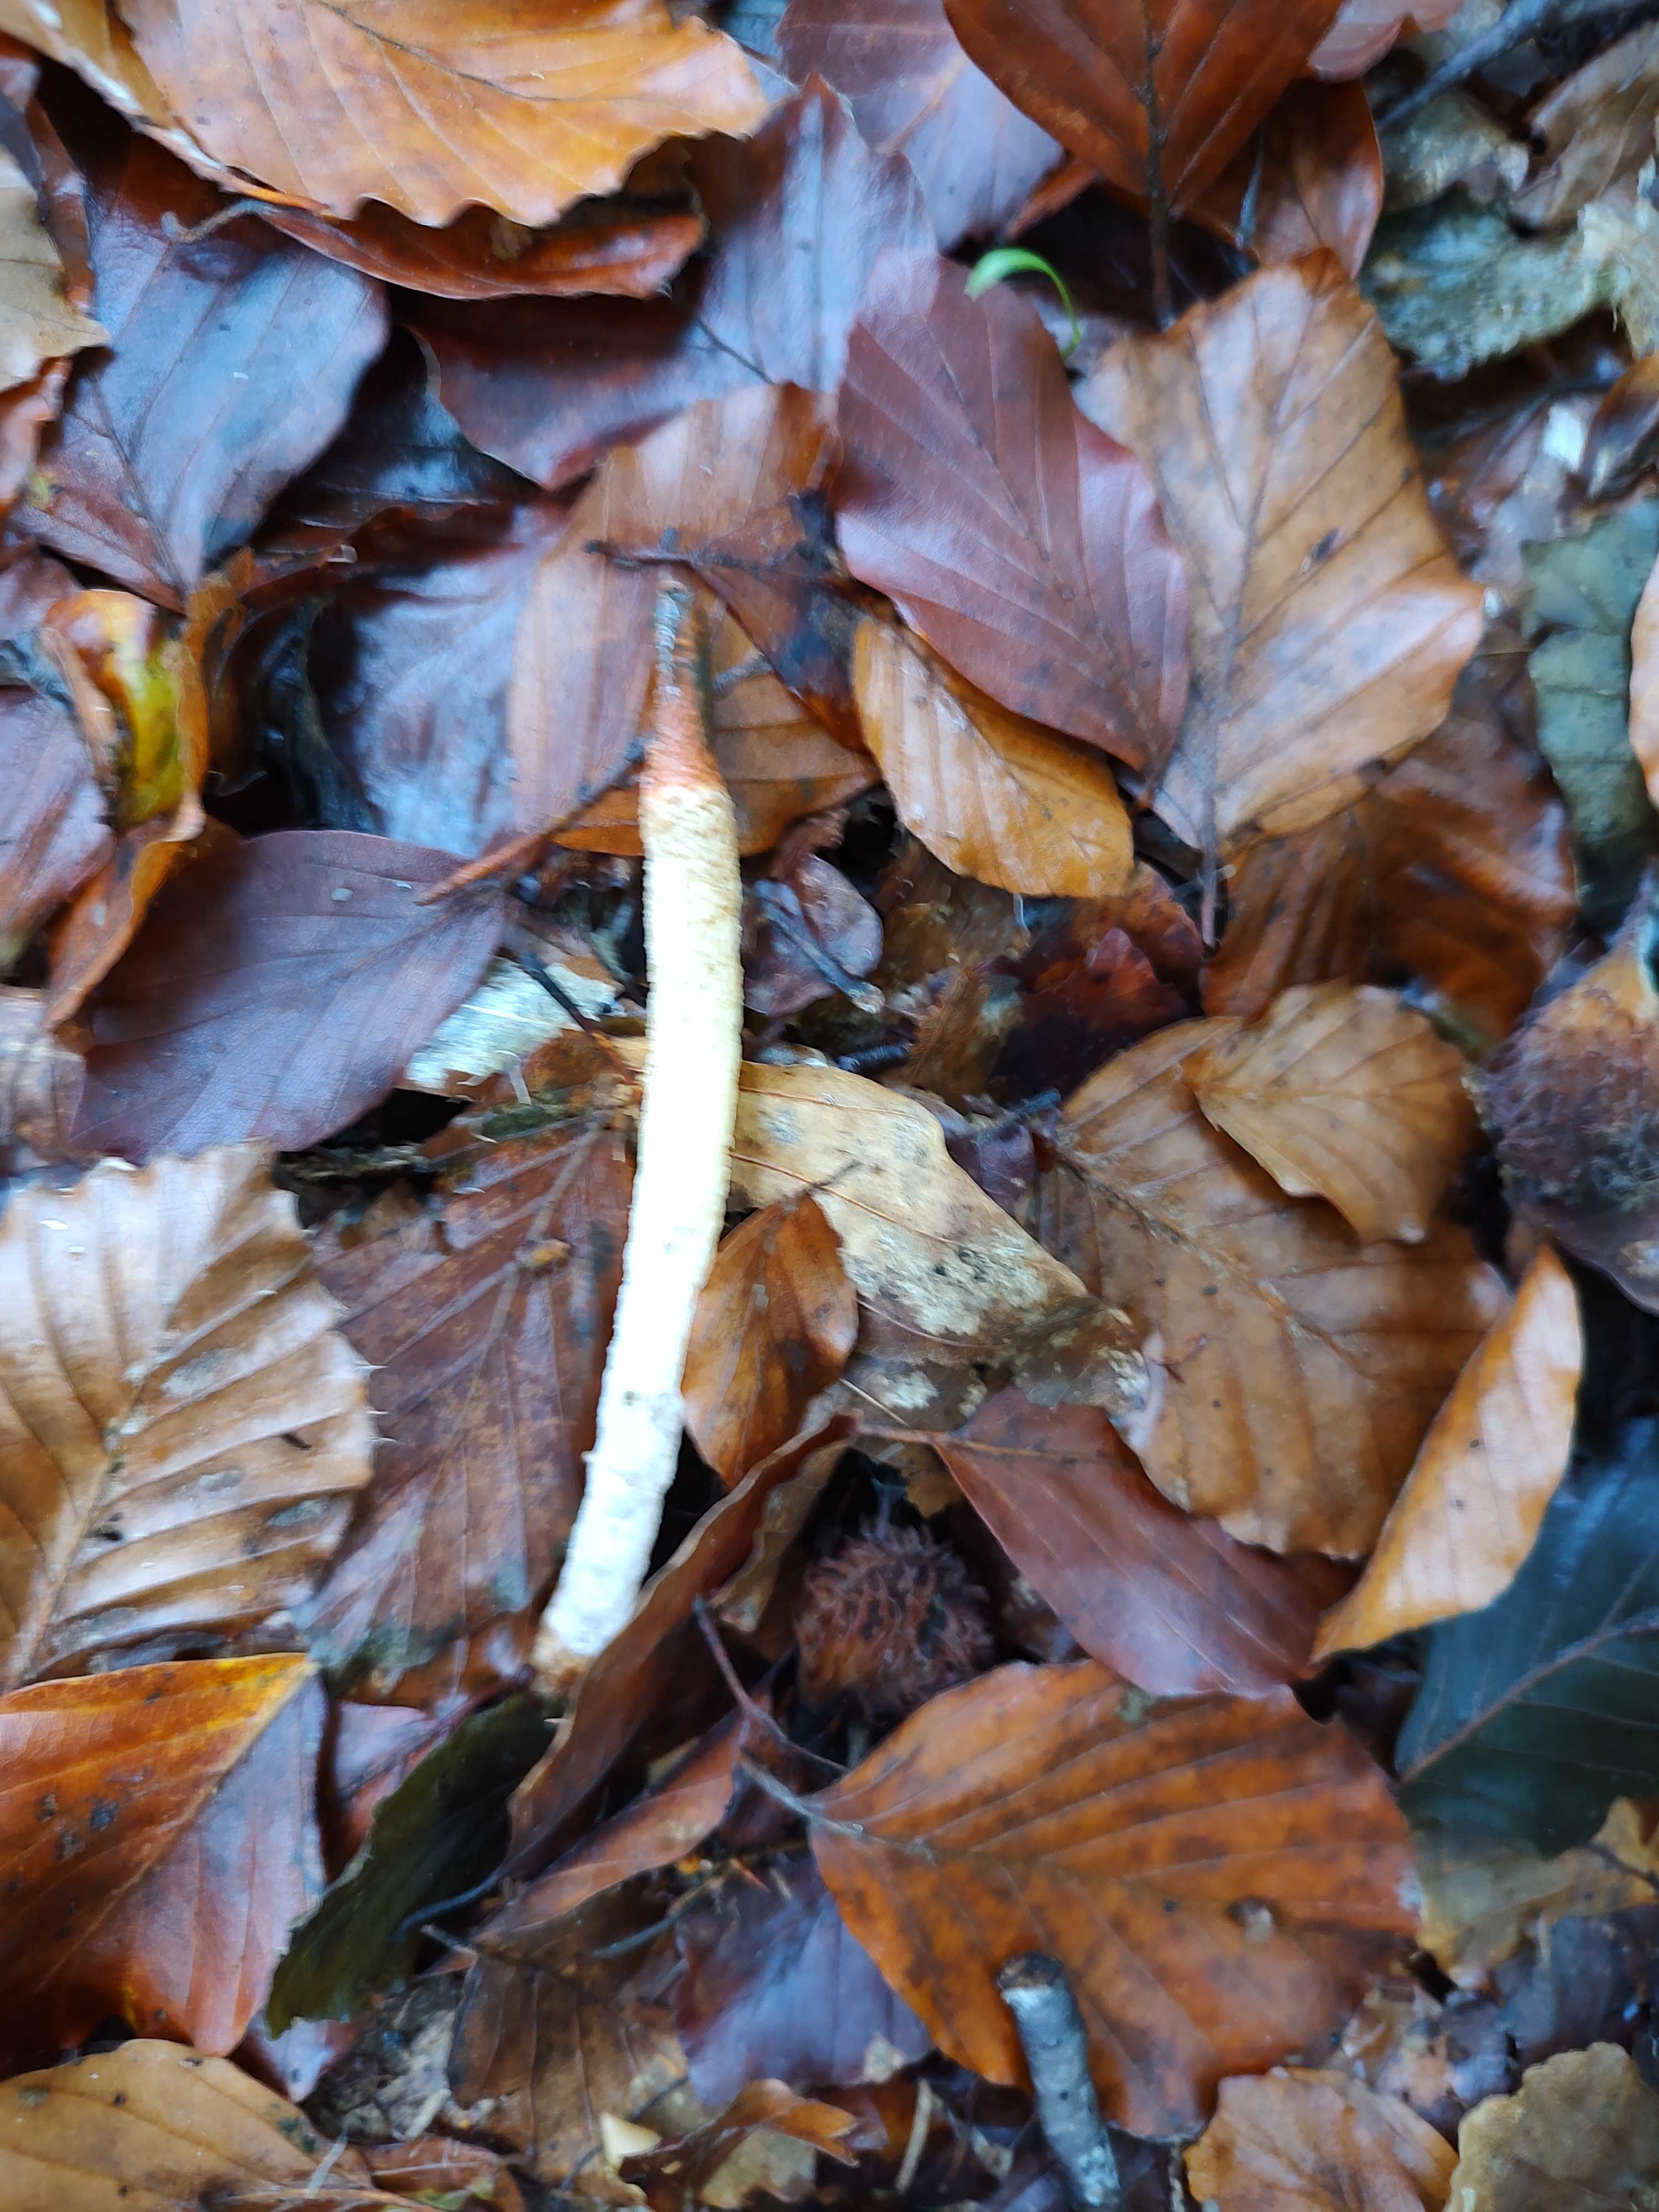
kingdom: Fungi
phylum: Basidiomycota
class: Agaricomycetes
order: Phallales
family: Phallaceae
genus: Mutinus
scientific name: Mutinus caninus
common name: hunde-stinksvamp
